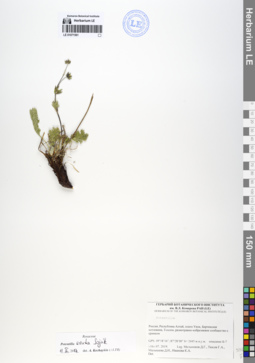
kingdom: Plantae
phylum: Tracheophyta
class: Magnoliopsida
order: Rosales
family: Rosaceae
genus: Potentilla
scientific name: Potentilla exuta
